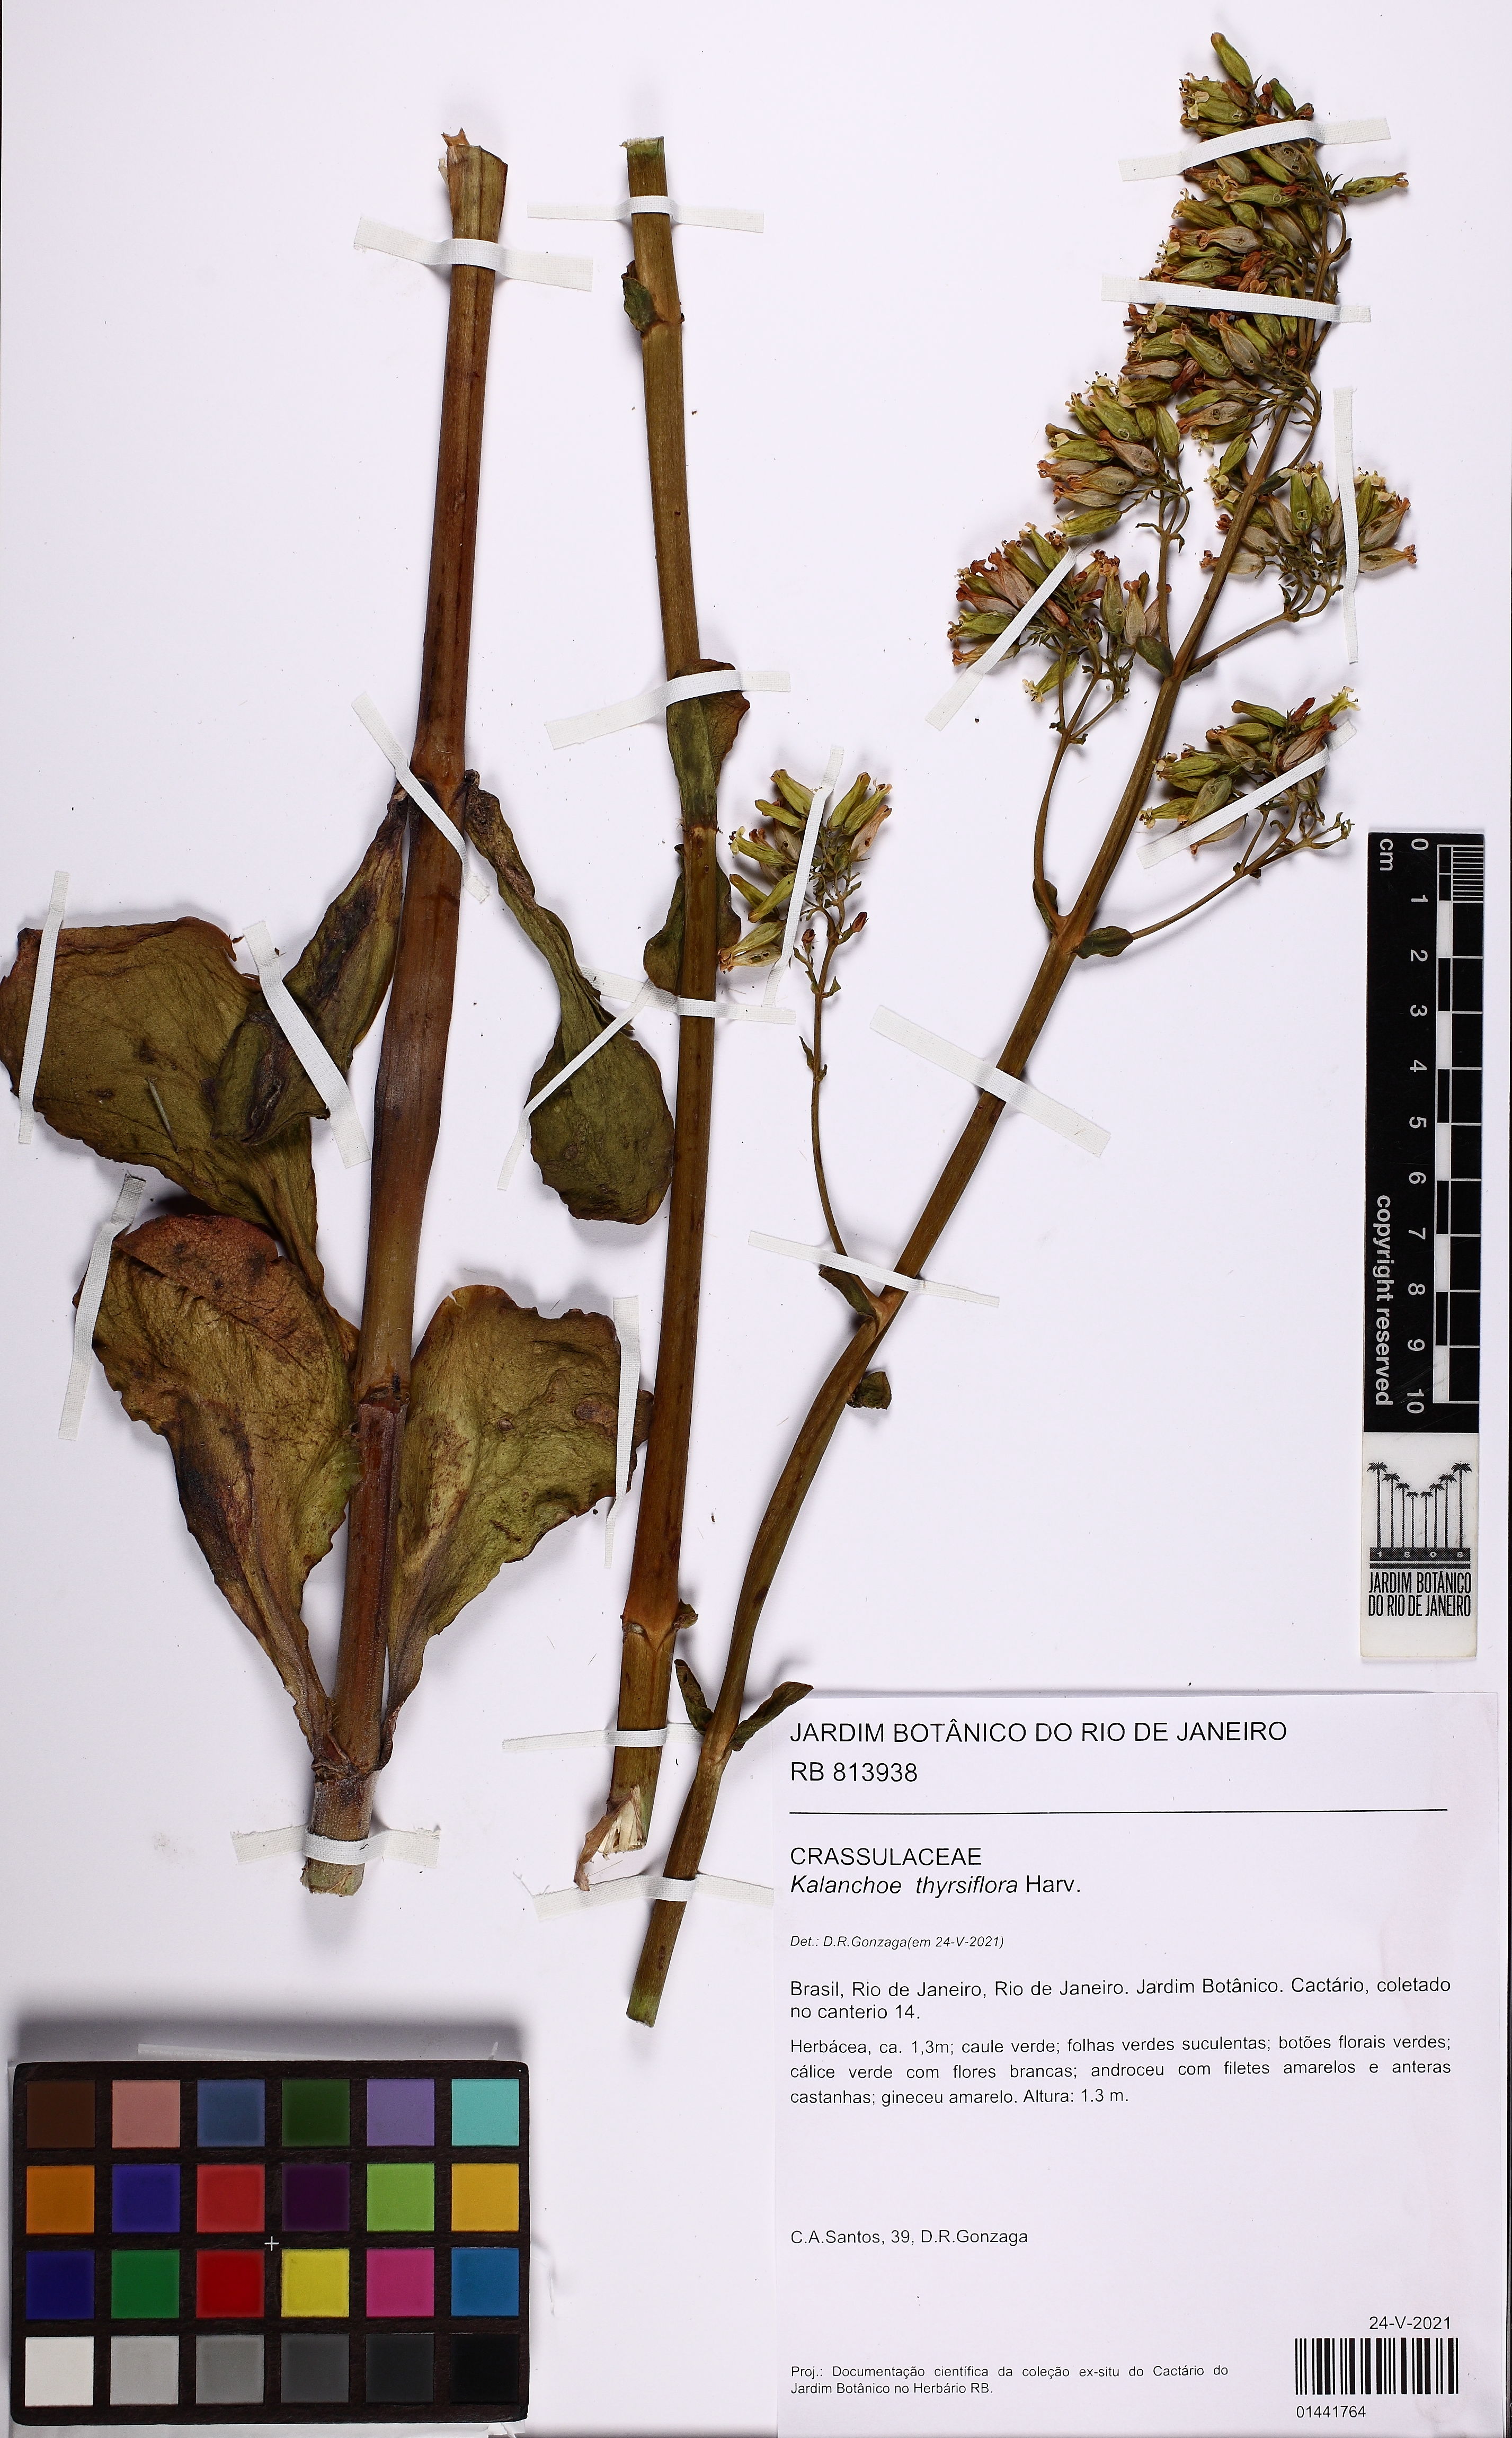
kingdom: Plantae
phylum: Tracheophyta
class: Magnoliopsida
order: Saxifragales
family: Crassulaceae
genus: Kalanchoe
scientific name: Kalanchoe thyrsiflora
